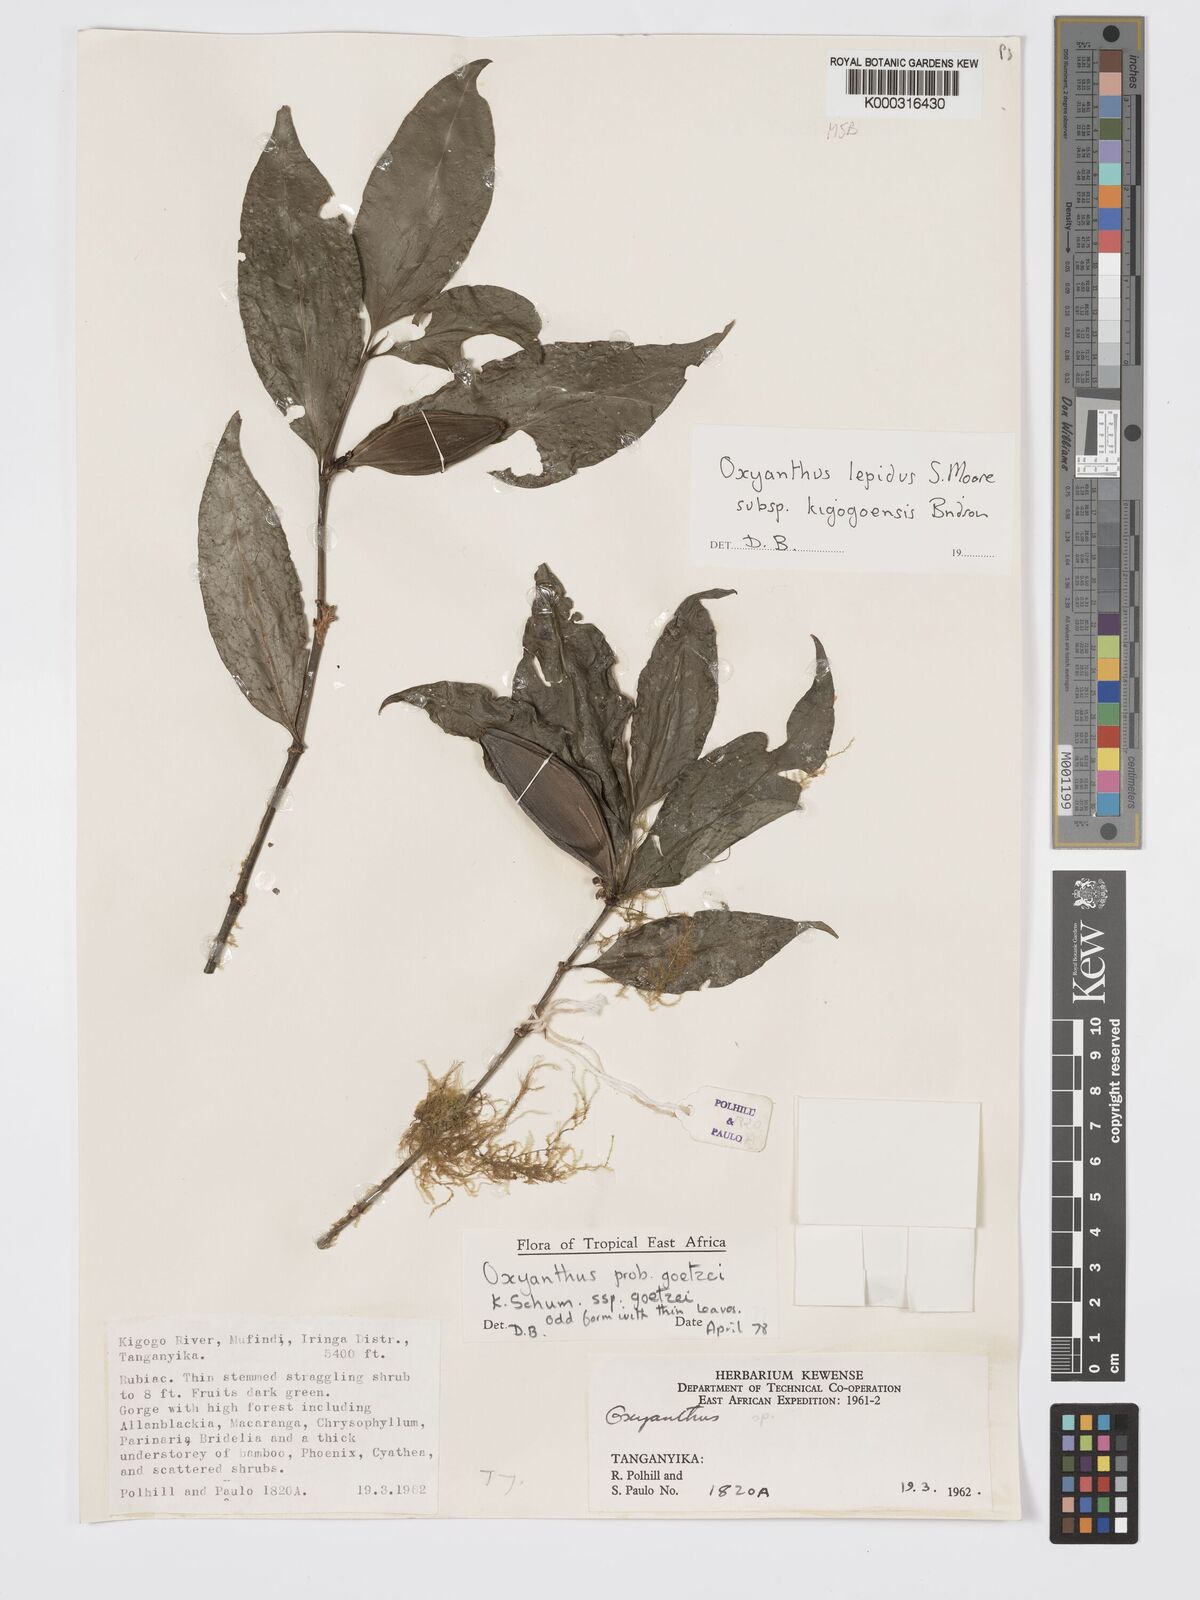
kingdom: Plantae
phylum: Tracheophyta
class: Magnoliopsida
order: Gentianales
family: Rubiaceae
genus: Oxyanthus
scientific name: Oxyanthus lepidus
